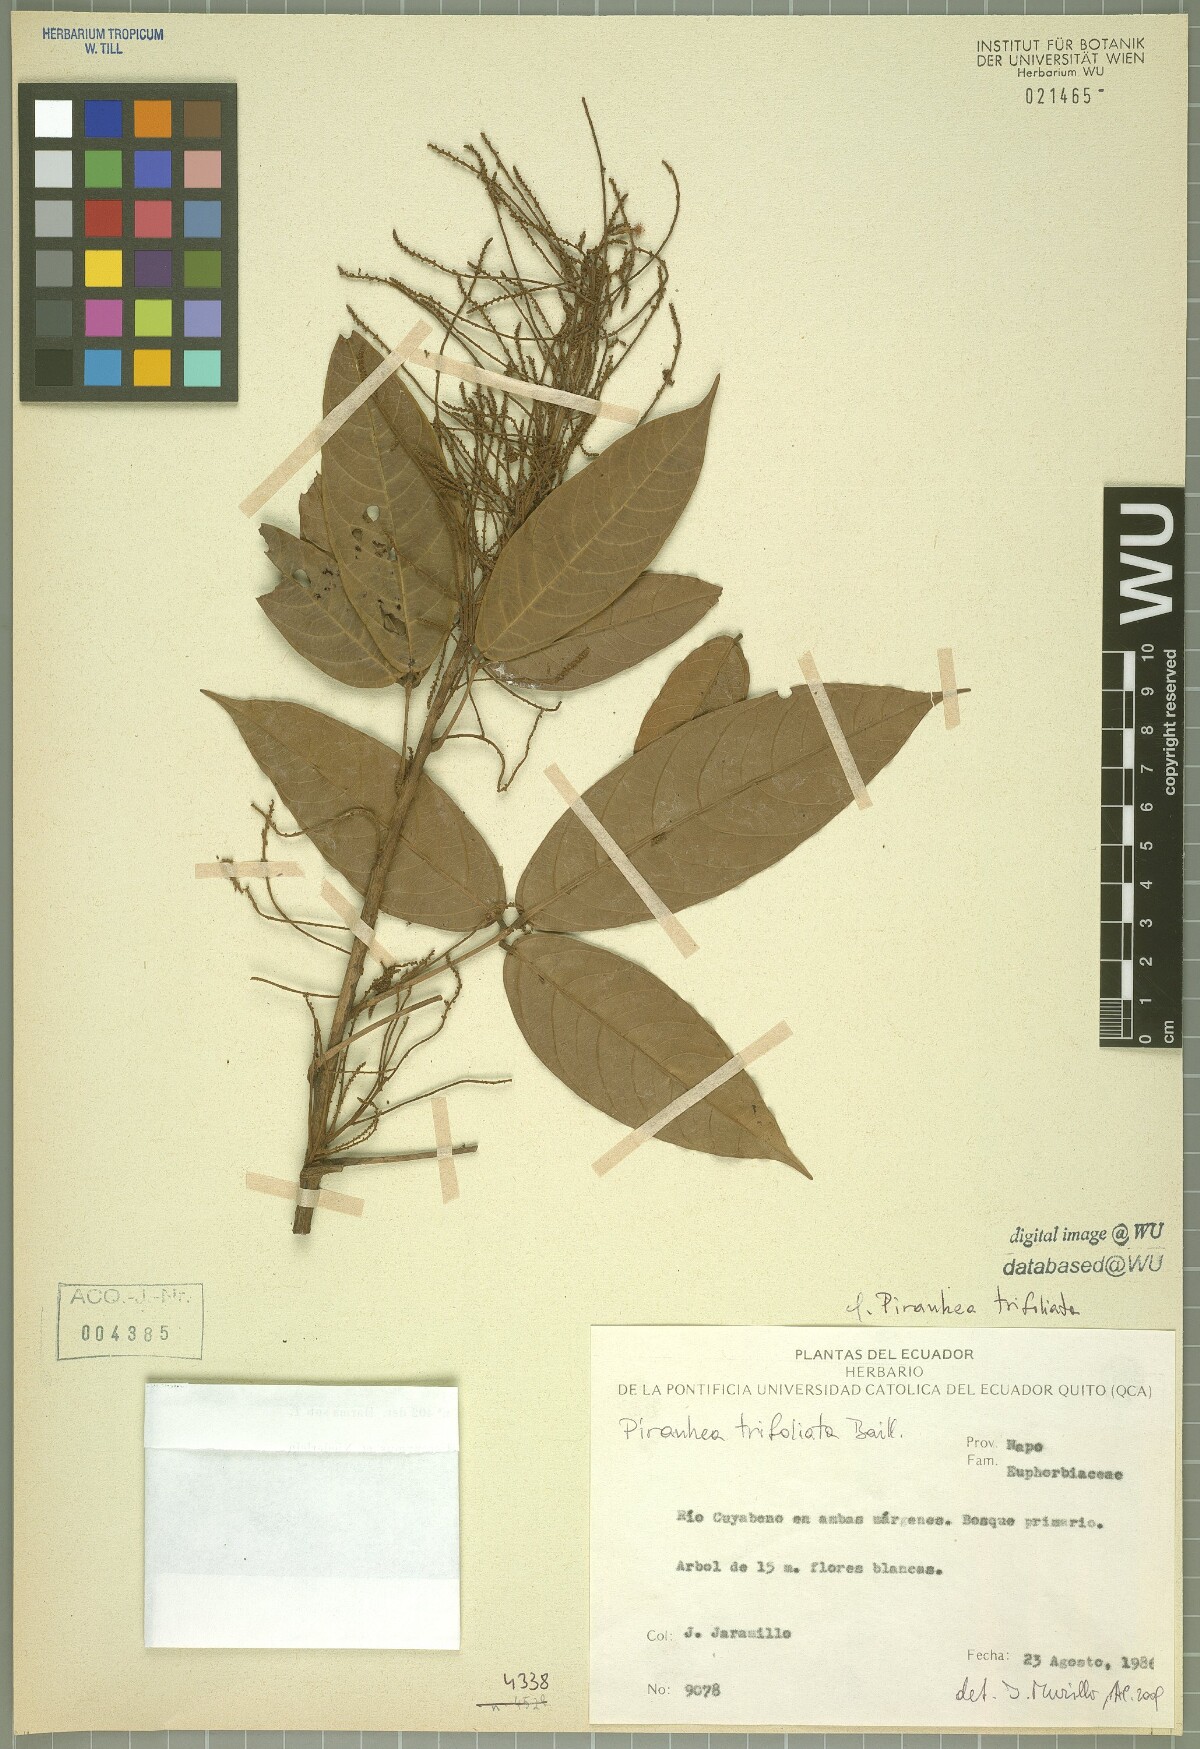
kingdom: Plantae
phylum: Tracheophyta
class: Magnoliopsida
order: Malpighiales
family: Picrodendraceae
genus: Piranhea
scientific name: Piranhea trifoliata
